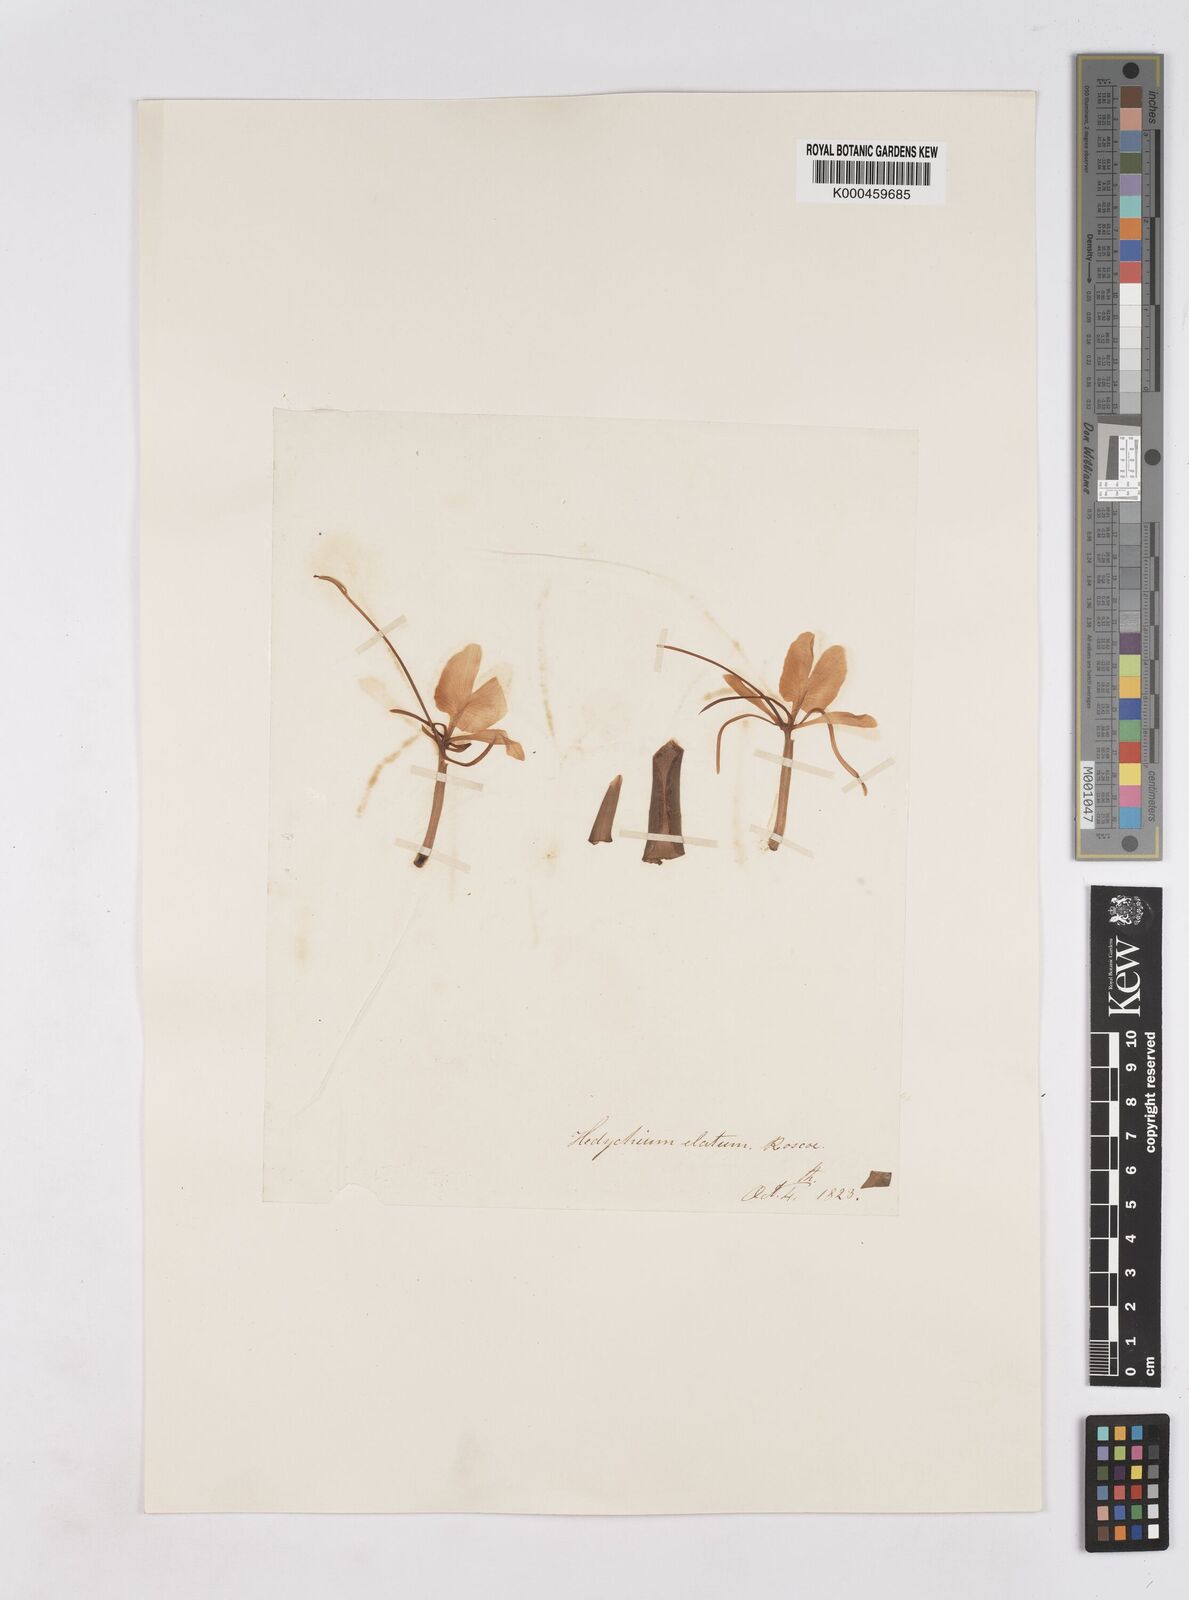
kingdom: Plantae
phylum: Tracheophyta
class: Liliopsida
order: Zingiberales
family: Zingiberaceae
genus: Hedychium
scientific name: Hedychium elatum
